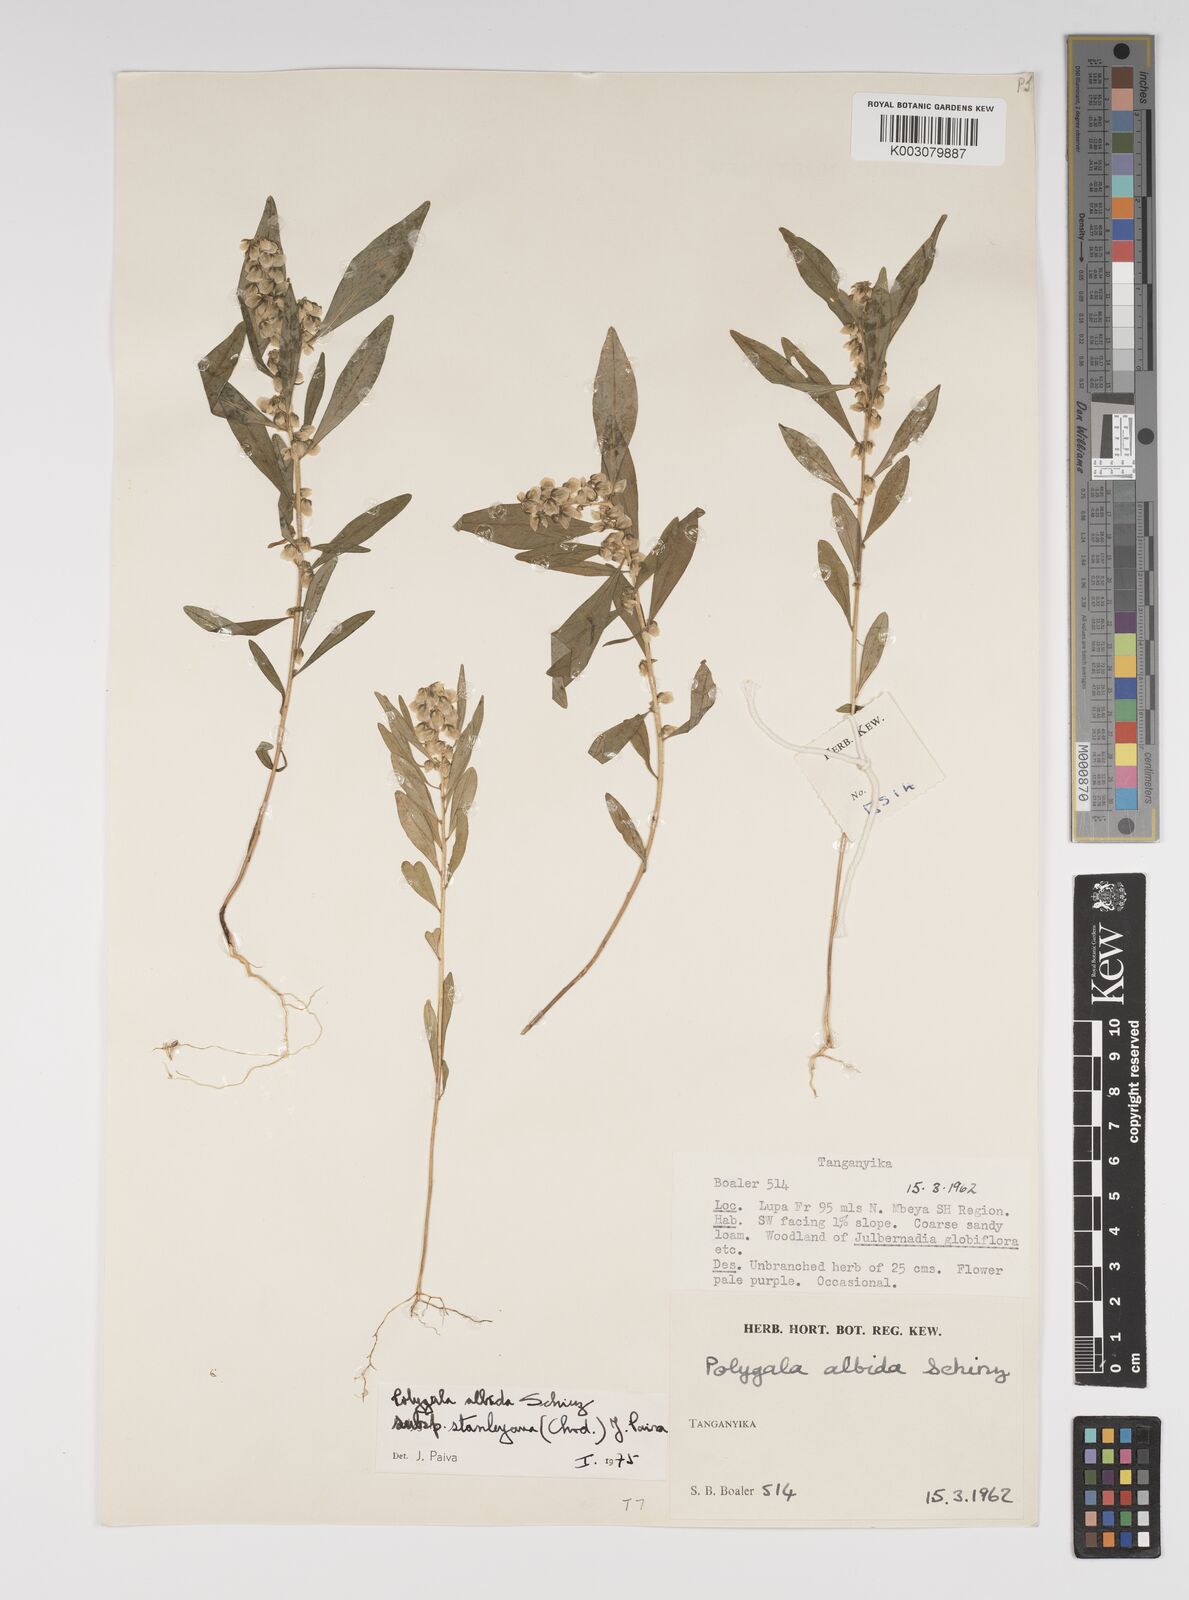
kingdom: Plantae
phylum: Tracheophyta
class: Magnoliopsida
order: Fabales
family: Polygalaceae
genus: Polygala
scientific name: Polygala albida
